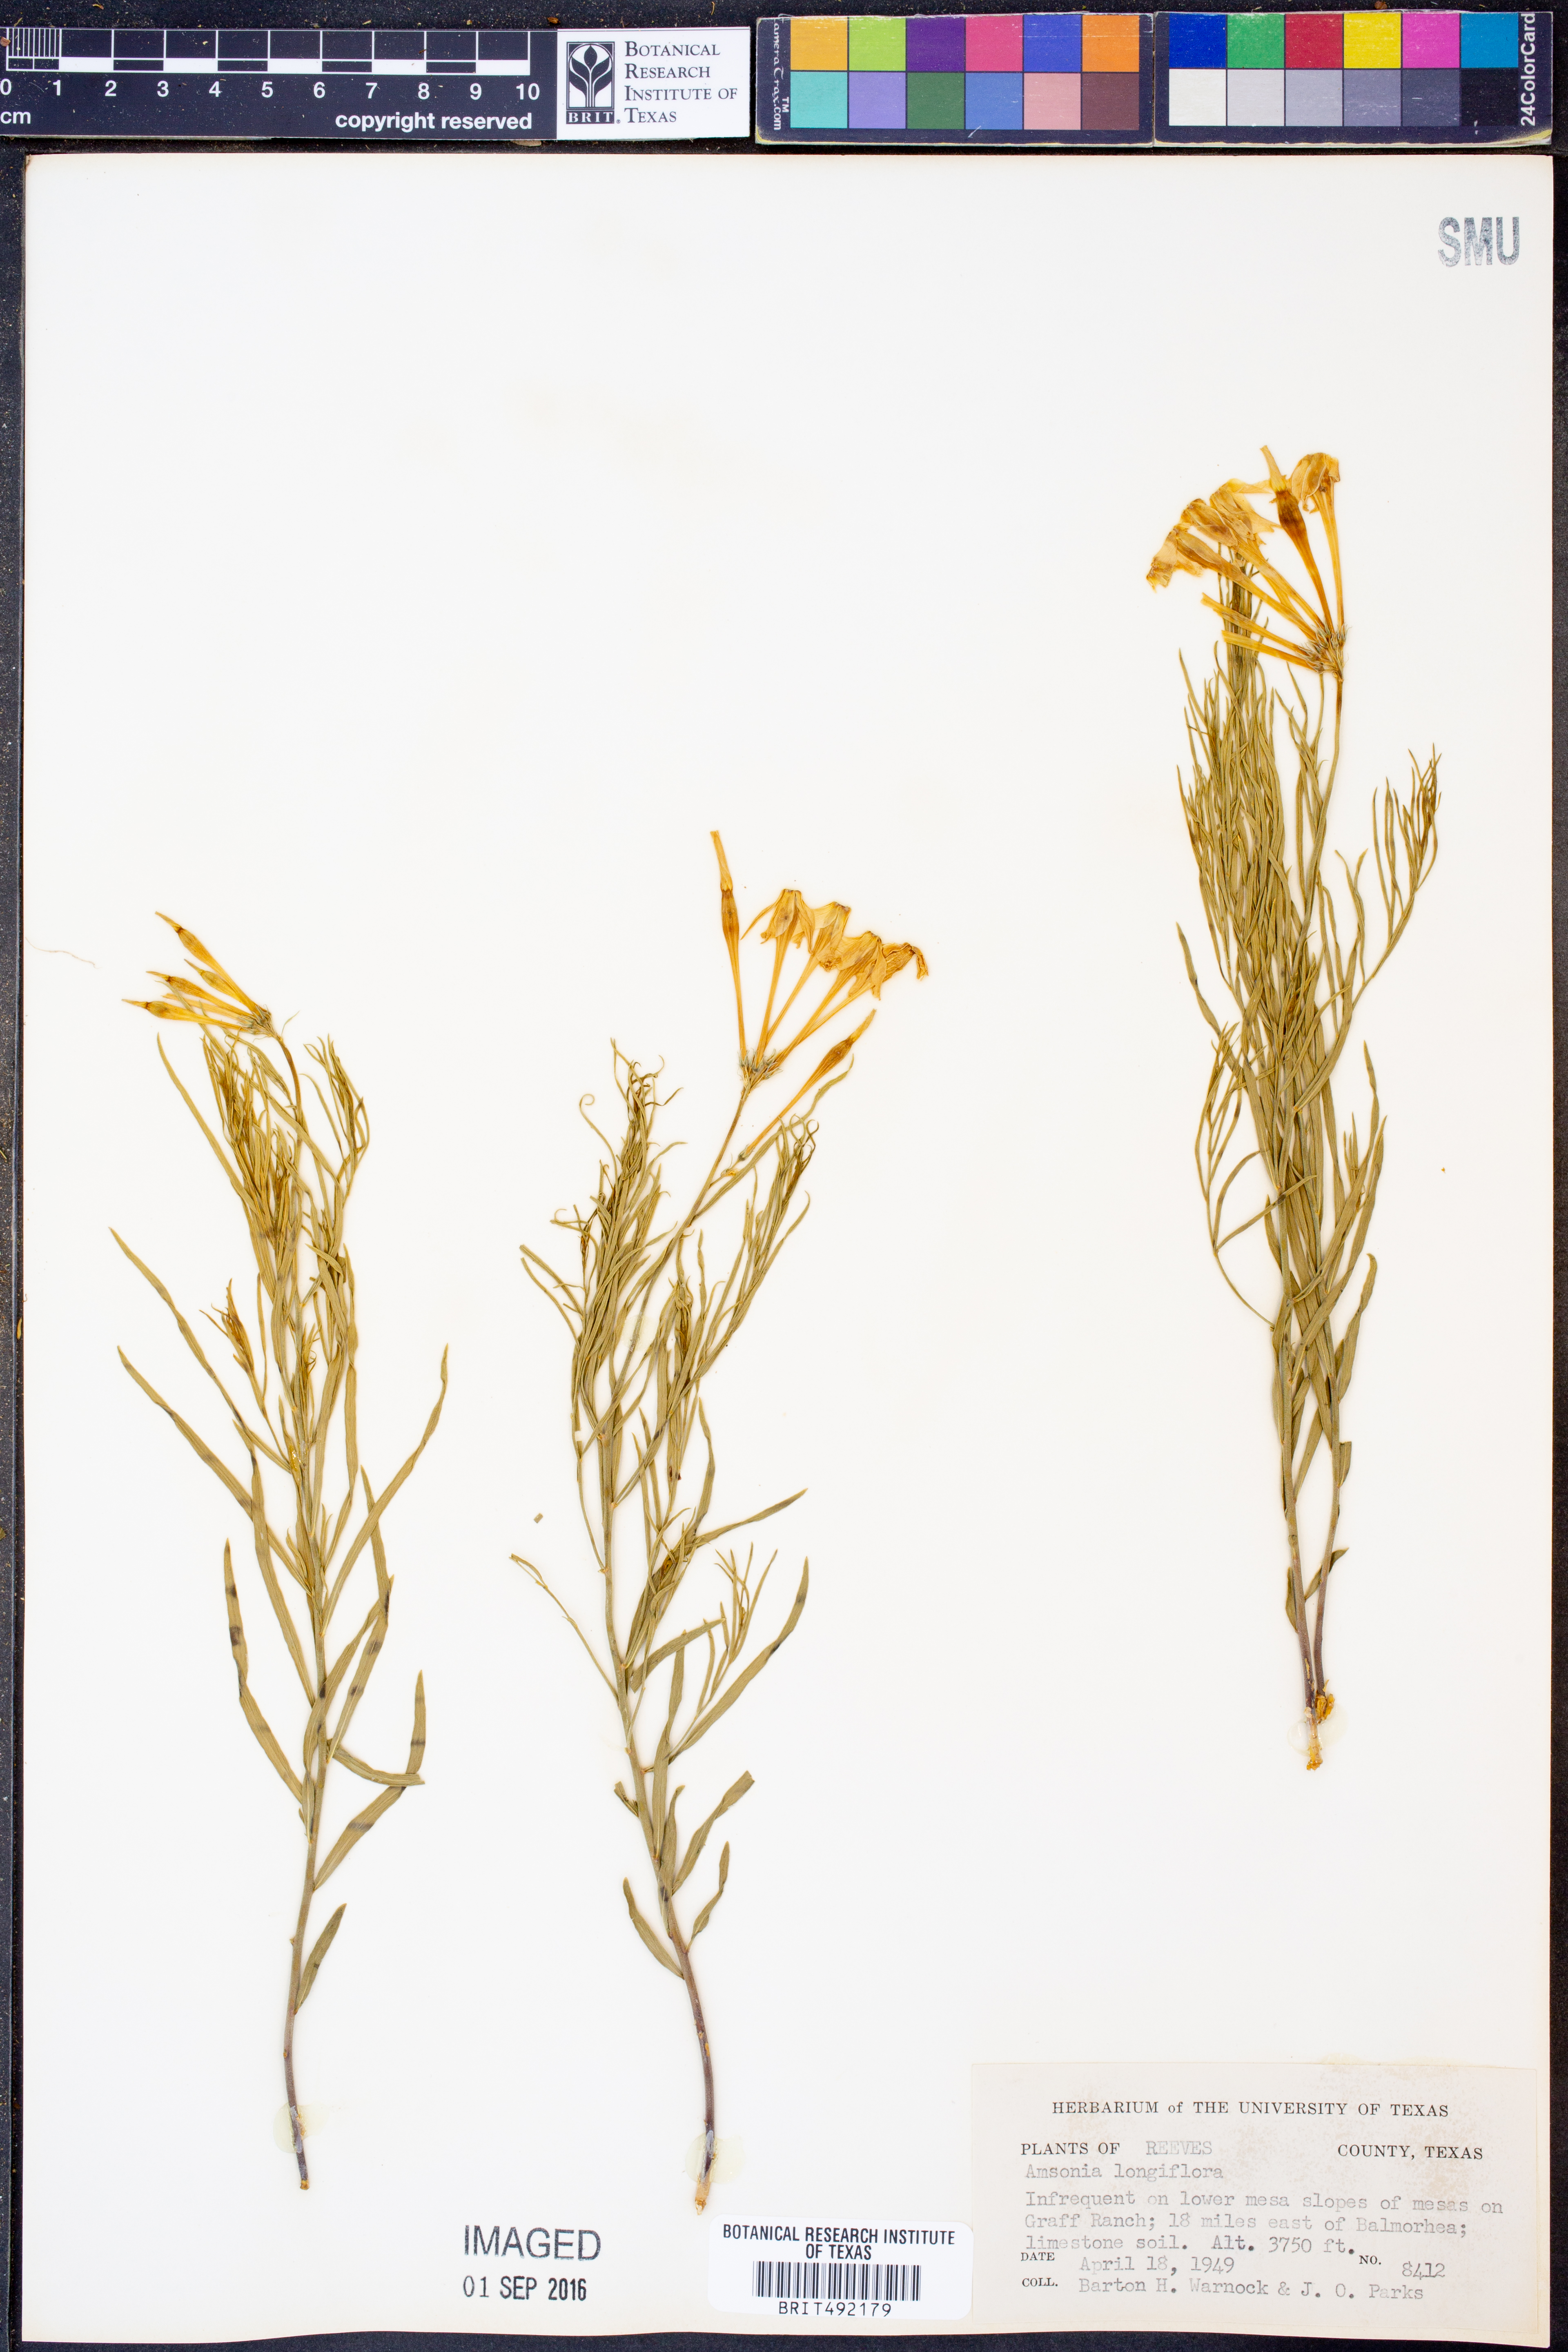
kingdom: Plantae
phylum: Tracheophyta
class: Magnoliopsida
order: Gentianales
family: Apocynaceae
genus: Amsonia
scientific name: Amsonia longiflora
